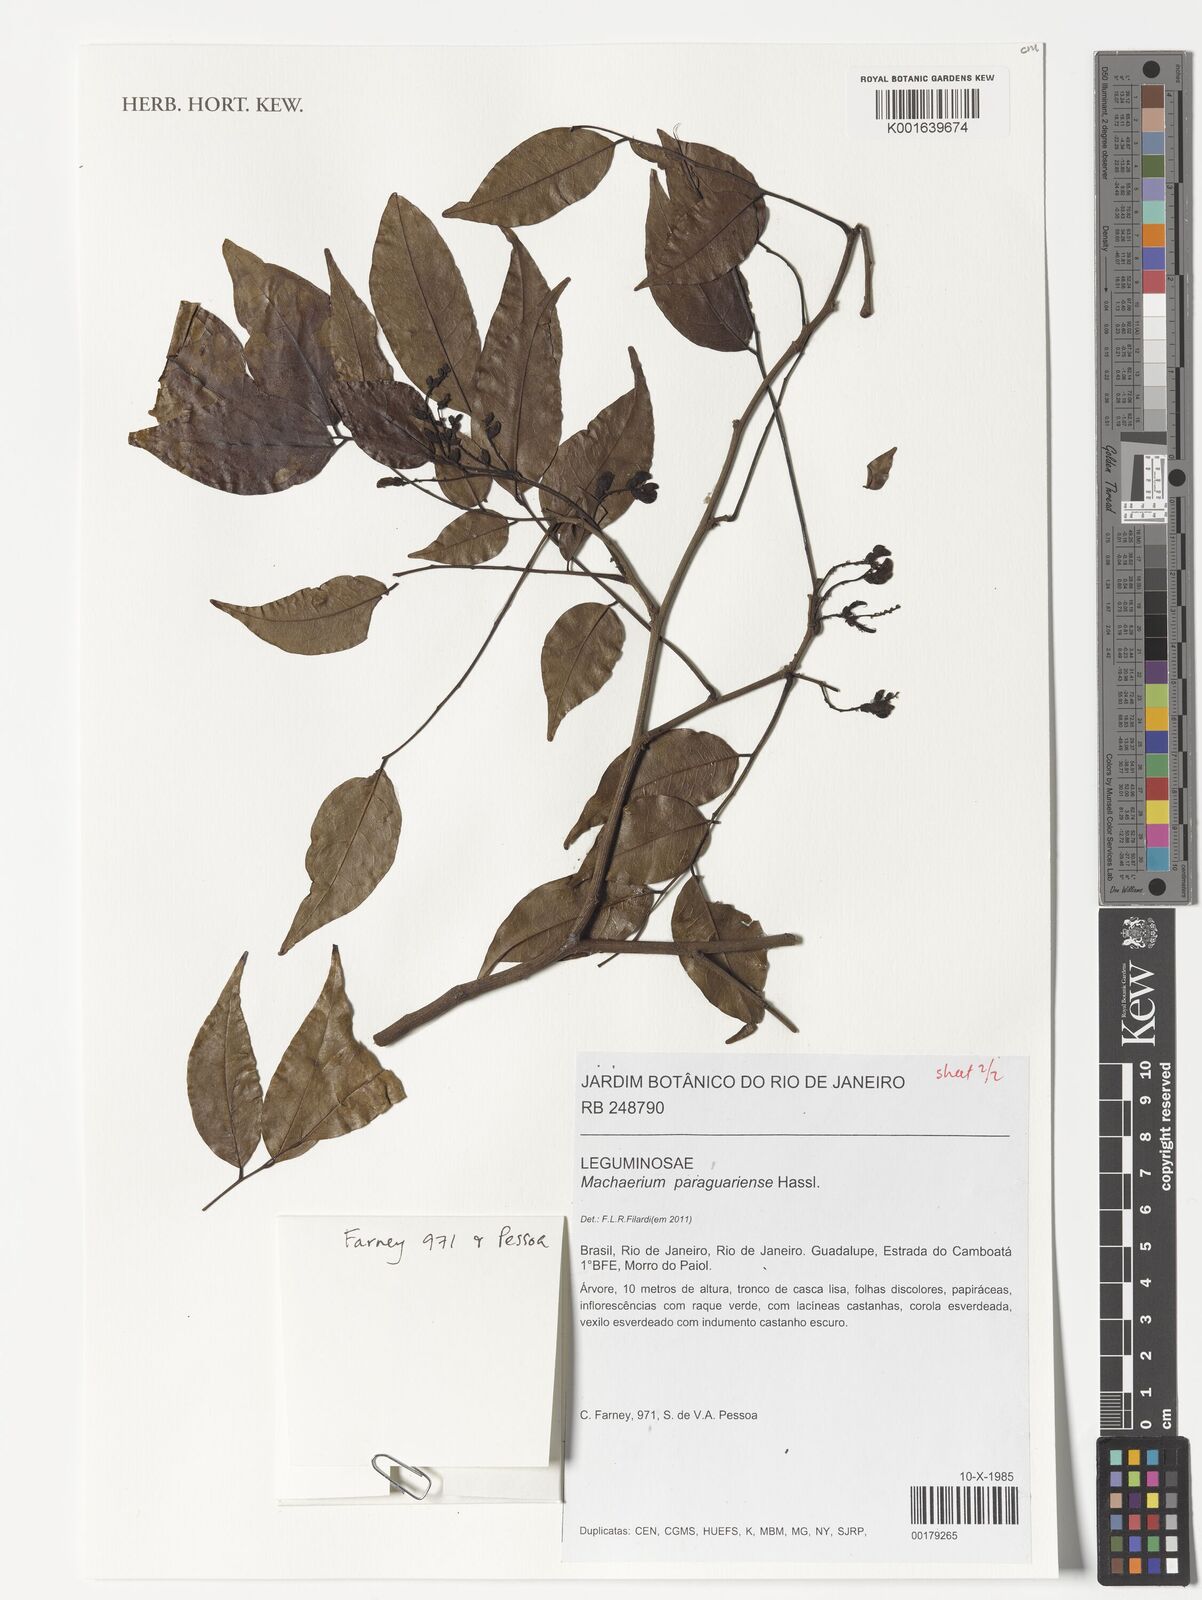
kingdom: Plantae
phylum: Tracheophyta
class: Magnoliopsida
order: Fabales
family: Fabaceae
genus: Machaerium
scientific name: Machaerium oblongifolium
